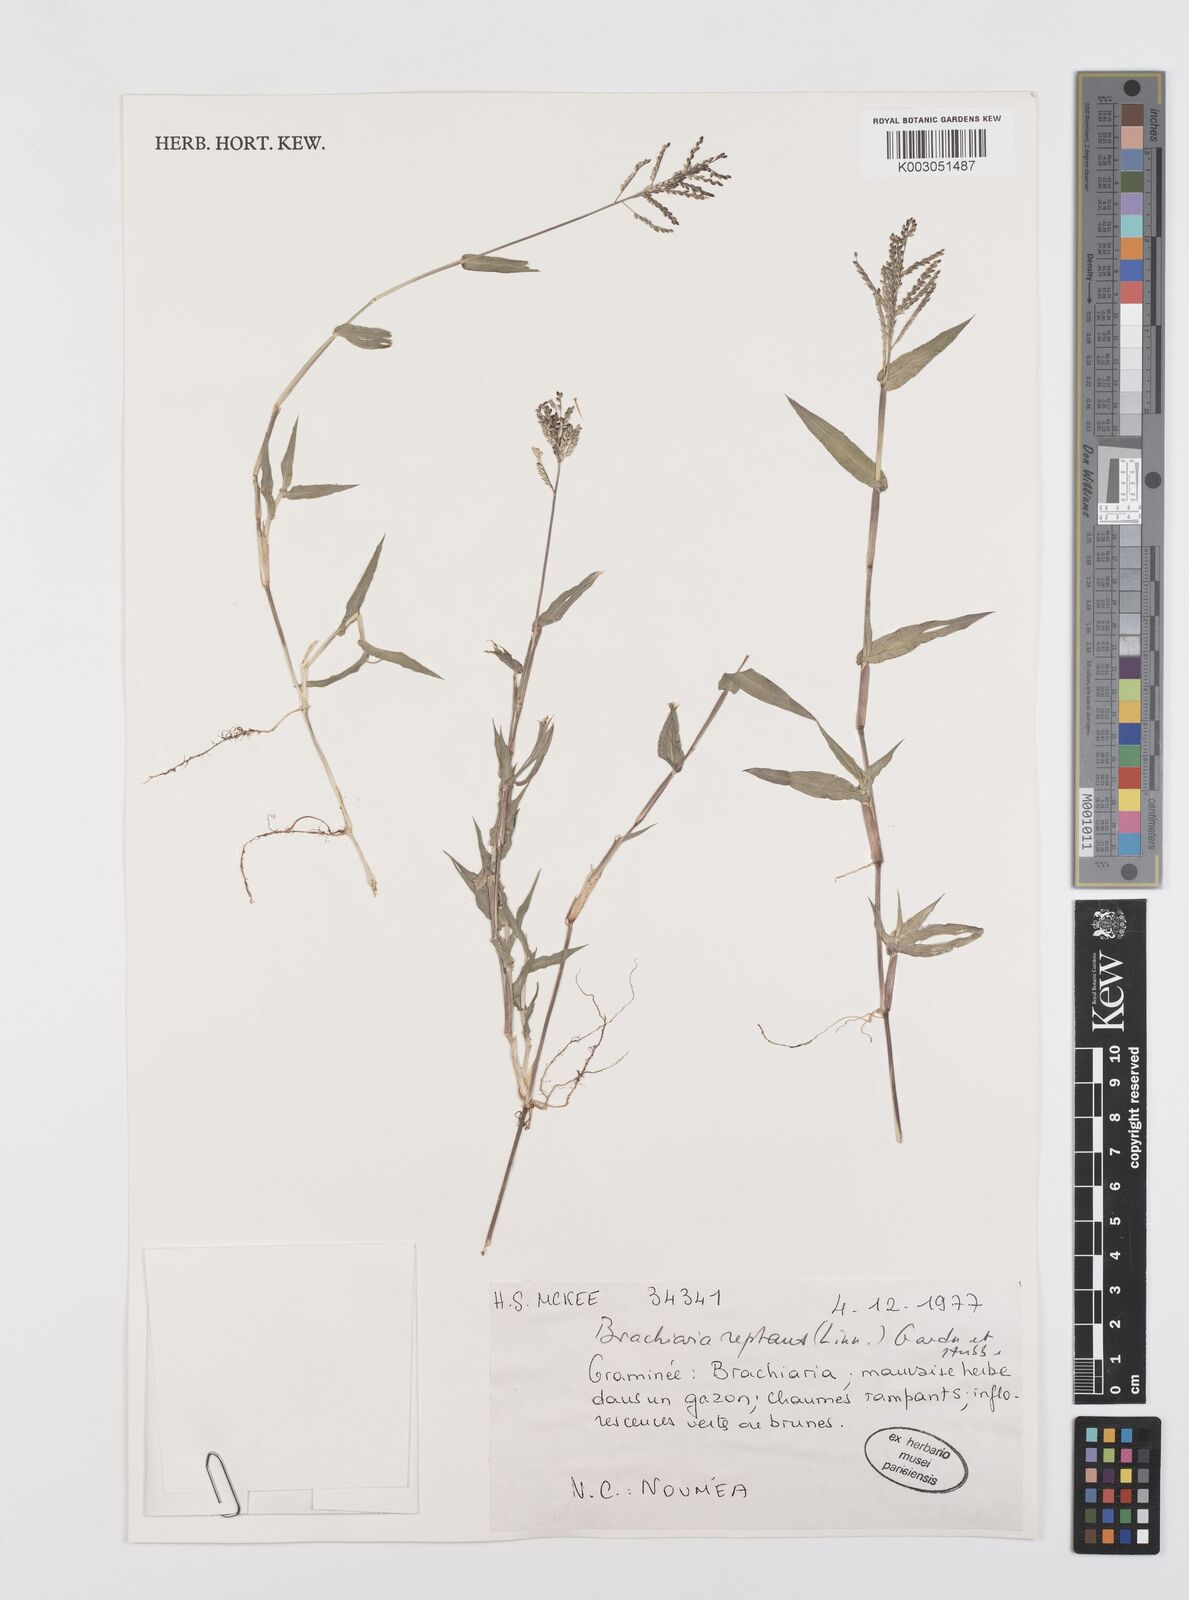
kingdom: Plantae
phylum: Tracheophyta
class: Liliopsida
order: Poales
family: Poaceae
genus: Urochloa
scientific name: Urochloa reptans
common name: Sprawling signalgrass
